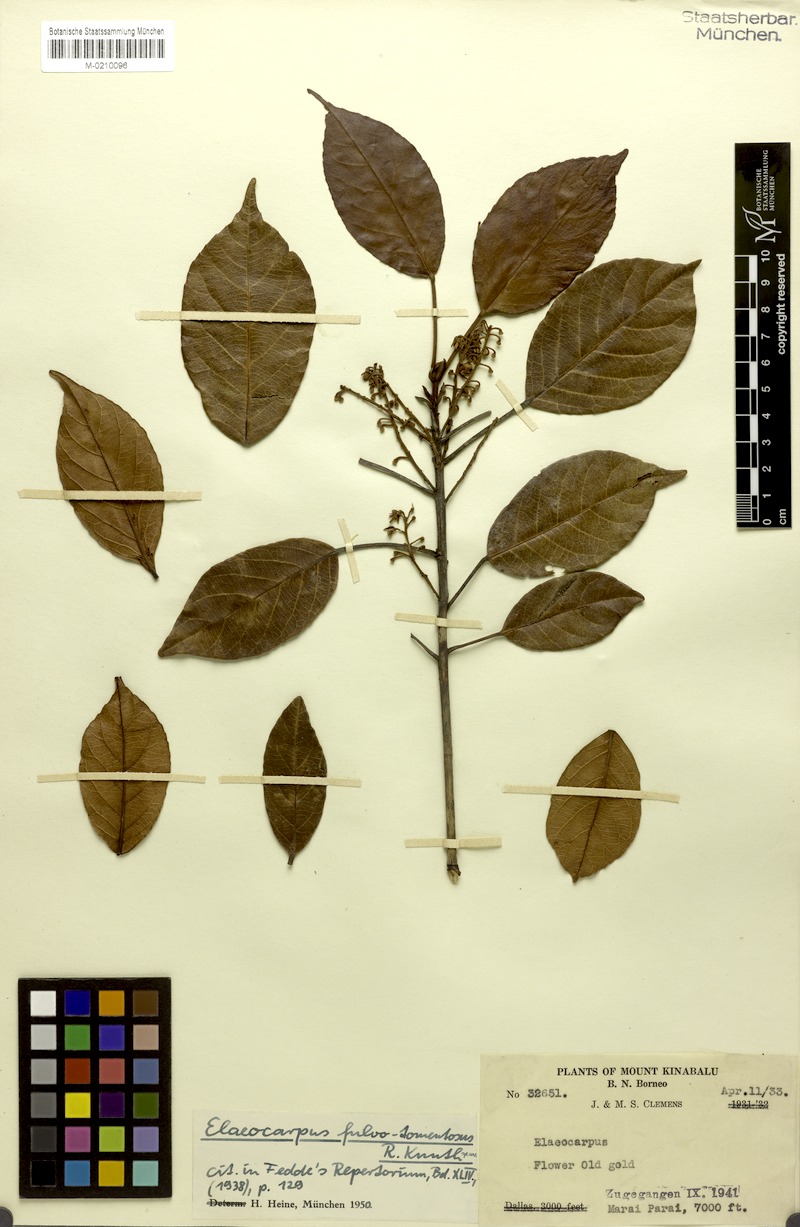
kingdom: Plantae
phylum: Tracheophyta
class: Magnoliopsida
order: Oxalidales
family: Elaeocarpaceae
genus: Elaeocarpus
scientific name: Elaeocarpus ferrugineus
